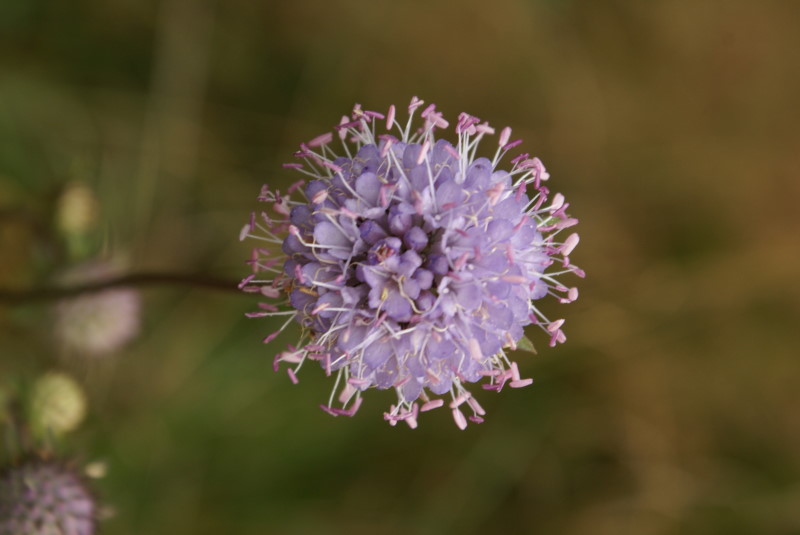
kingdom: Plantae
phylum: Tracheophyta
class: Magnoliopsida
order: Dipsacales
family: Caprifoliaceae
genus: Succisa
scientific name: Succisa pratensis
